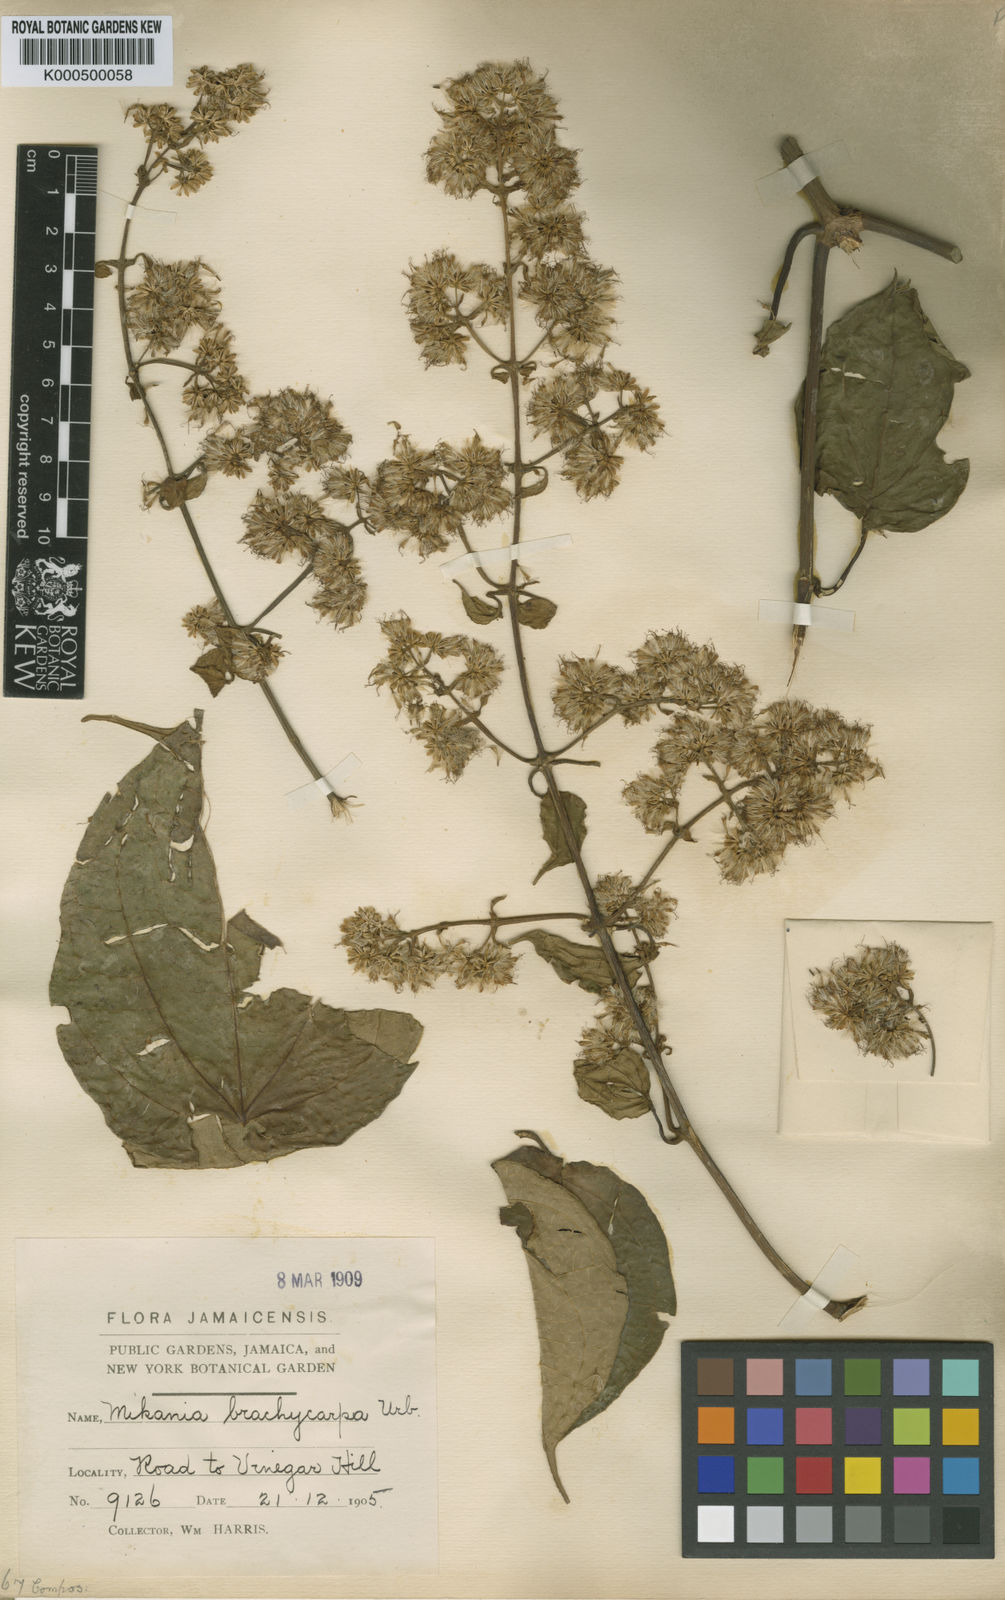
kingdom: Plantae
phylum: Tracheophyta
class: Magnoliopsida
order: Asterales
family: Asteraceae
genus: Mikania
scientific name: Mikania brachycarpa
